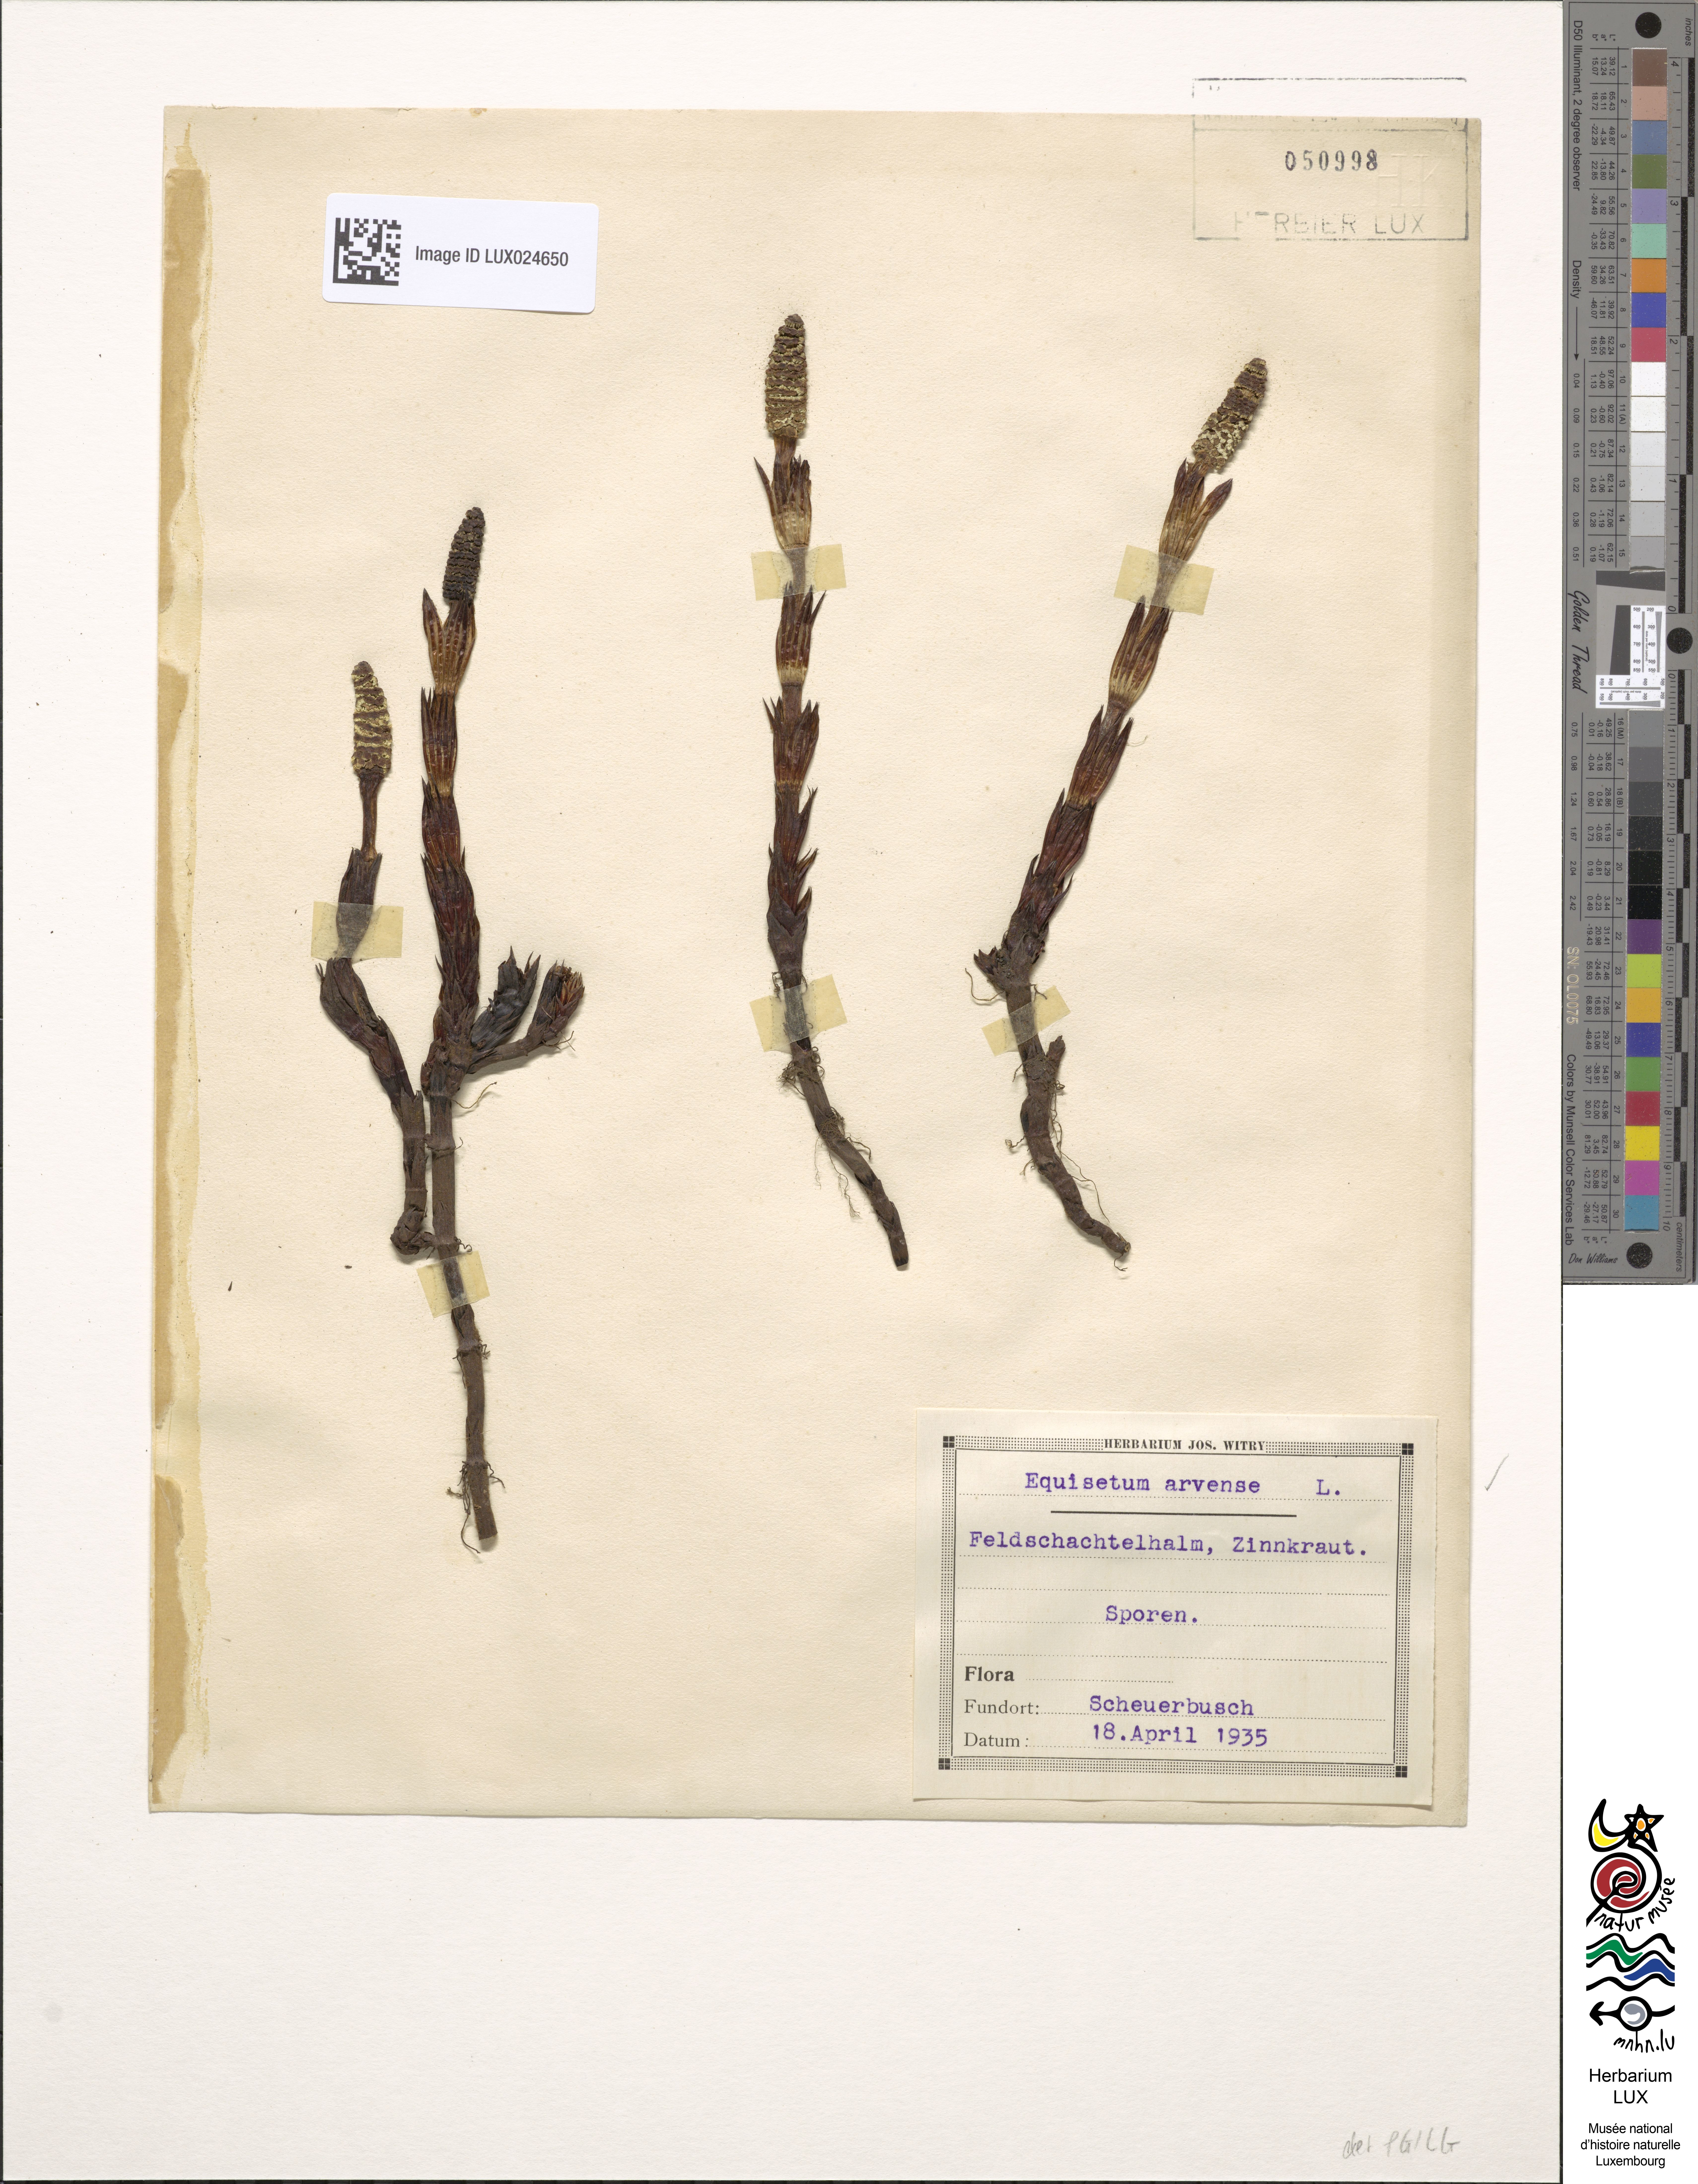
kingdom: Plantae
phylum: Tracheophyta
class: Polypodiopsida
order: Equisetales
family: Equisetaceae
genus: Equisetum
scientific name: Equisetum arvense
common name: Field horsetail
